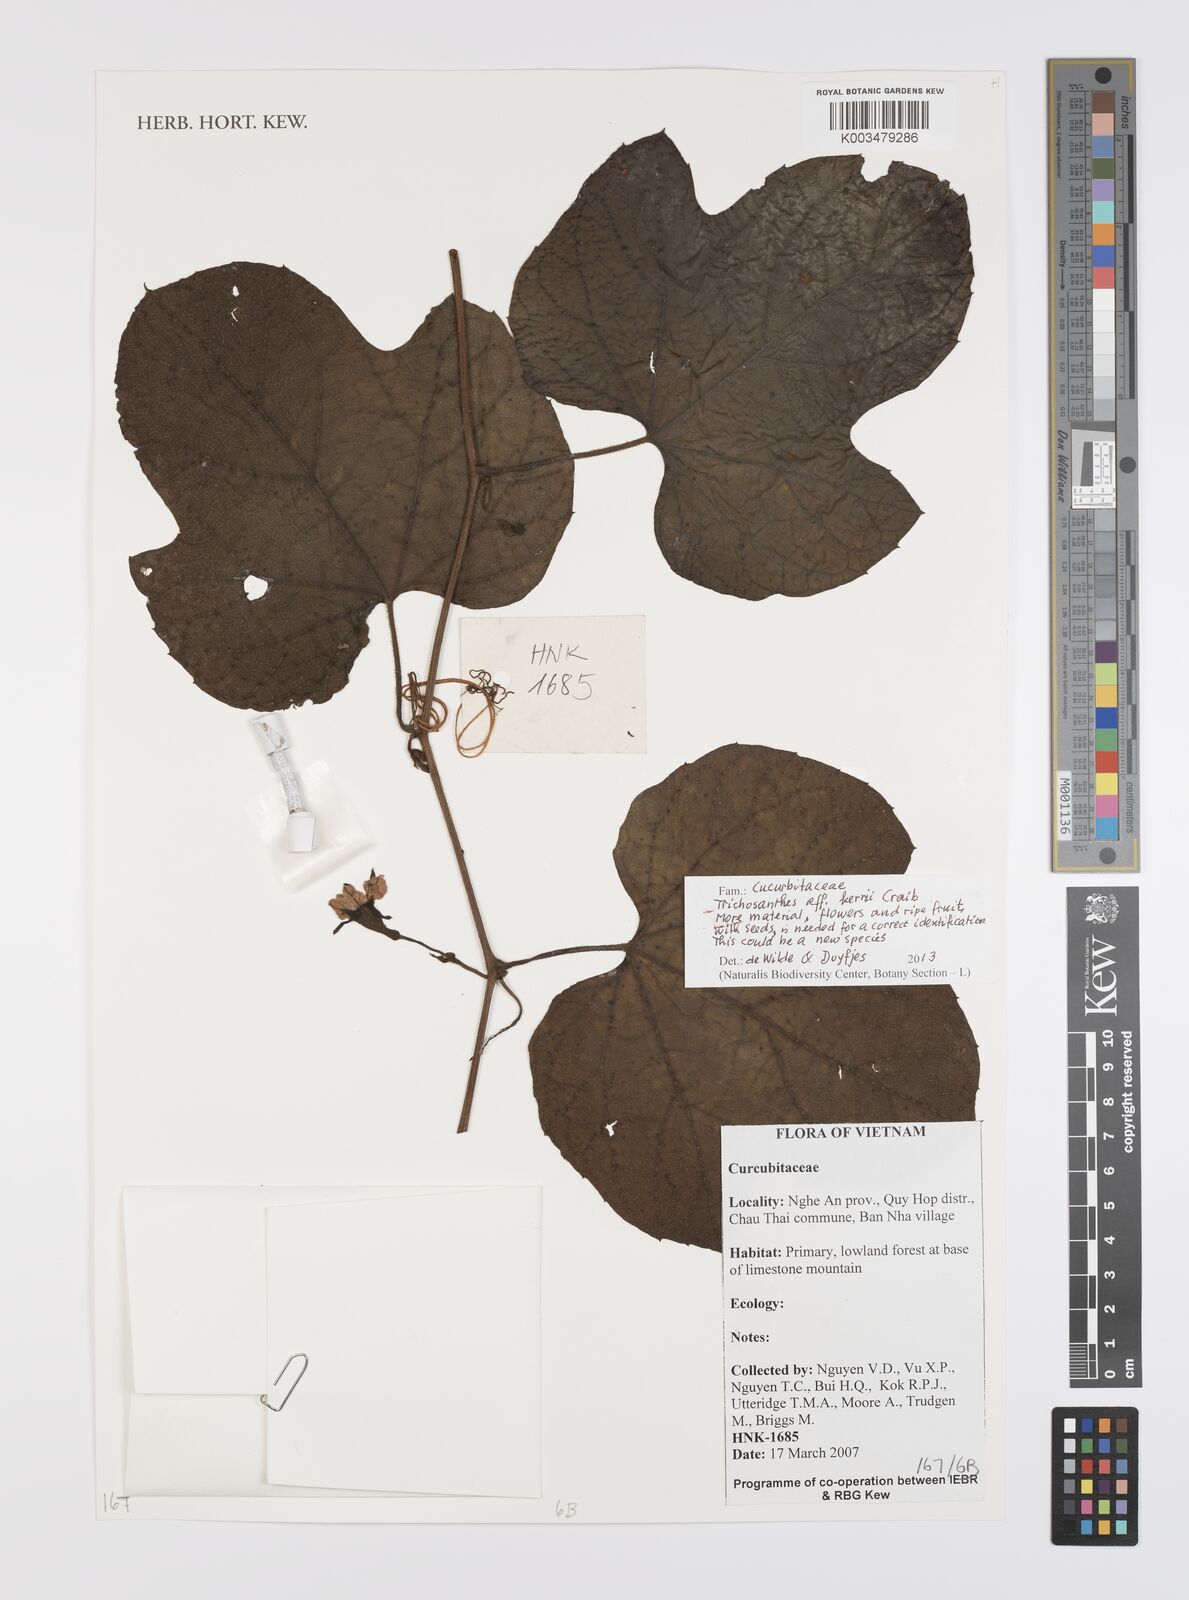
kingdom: Plantae
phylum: Tracheophyta
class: Magnoliopsida
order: Cucurbitales
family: Cucurbitaceae
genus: Trichosanthes
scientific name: Trichosanthes kerrii
